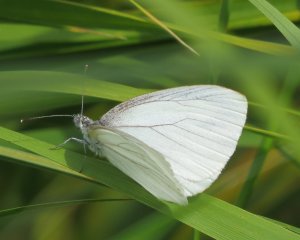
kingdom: Animalia
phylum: Arthropoda
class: Insecta
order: Lepidoptera
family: Pieridae
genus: Pieris
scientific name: Pieris oleracea
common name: Mustard White
